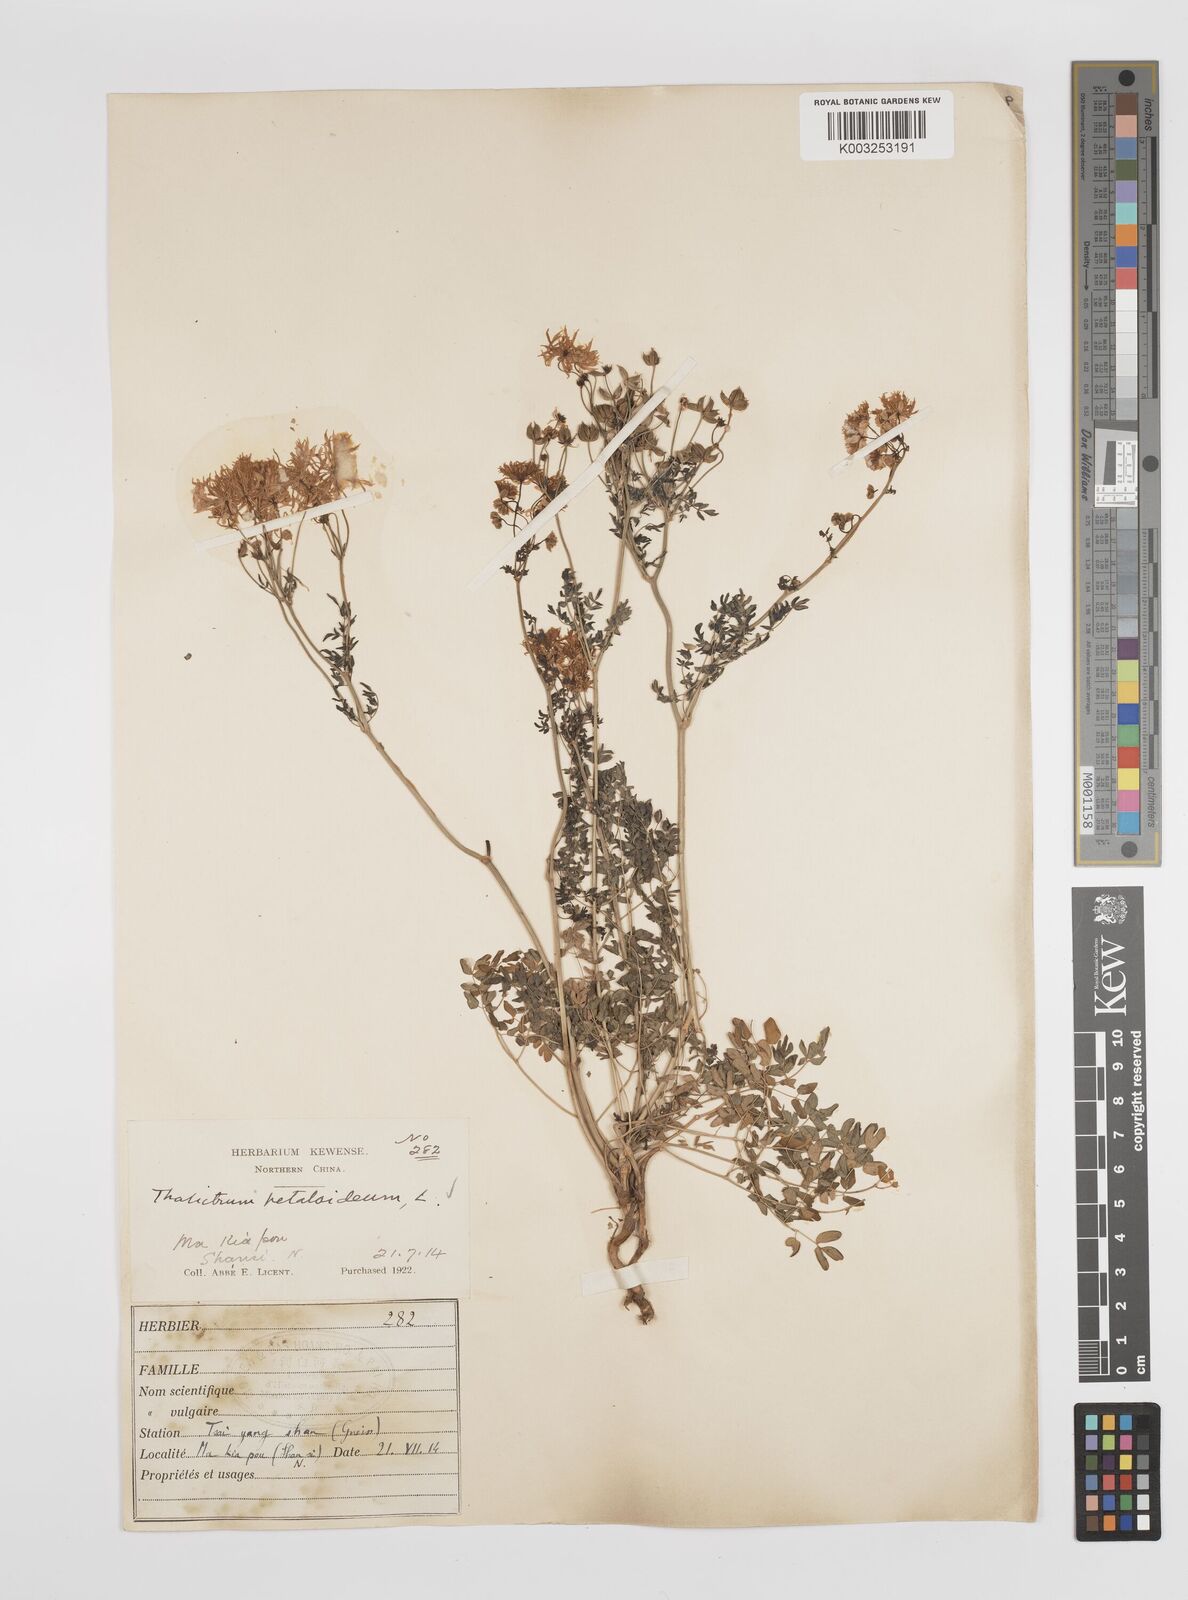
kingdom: Plantae
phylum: Tracheophyta
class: Magnoliopsida
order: Ranunculales
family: Ranunculaceae
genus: Thalictrum
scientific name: Thalictrum petaloideum
